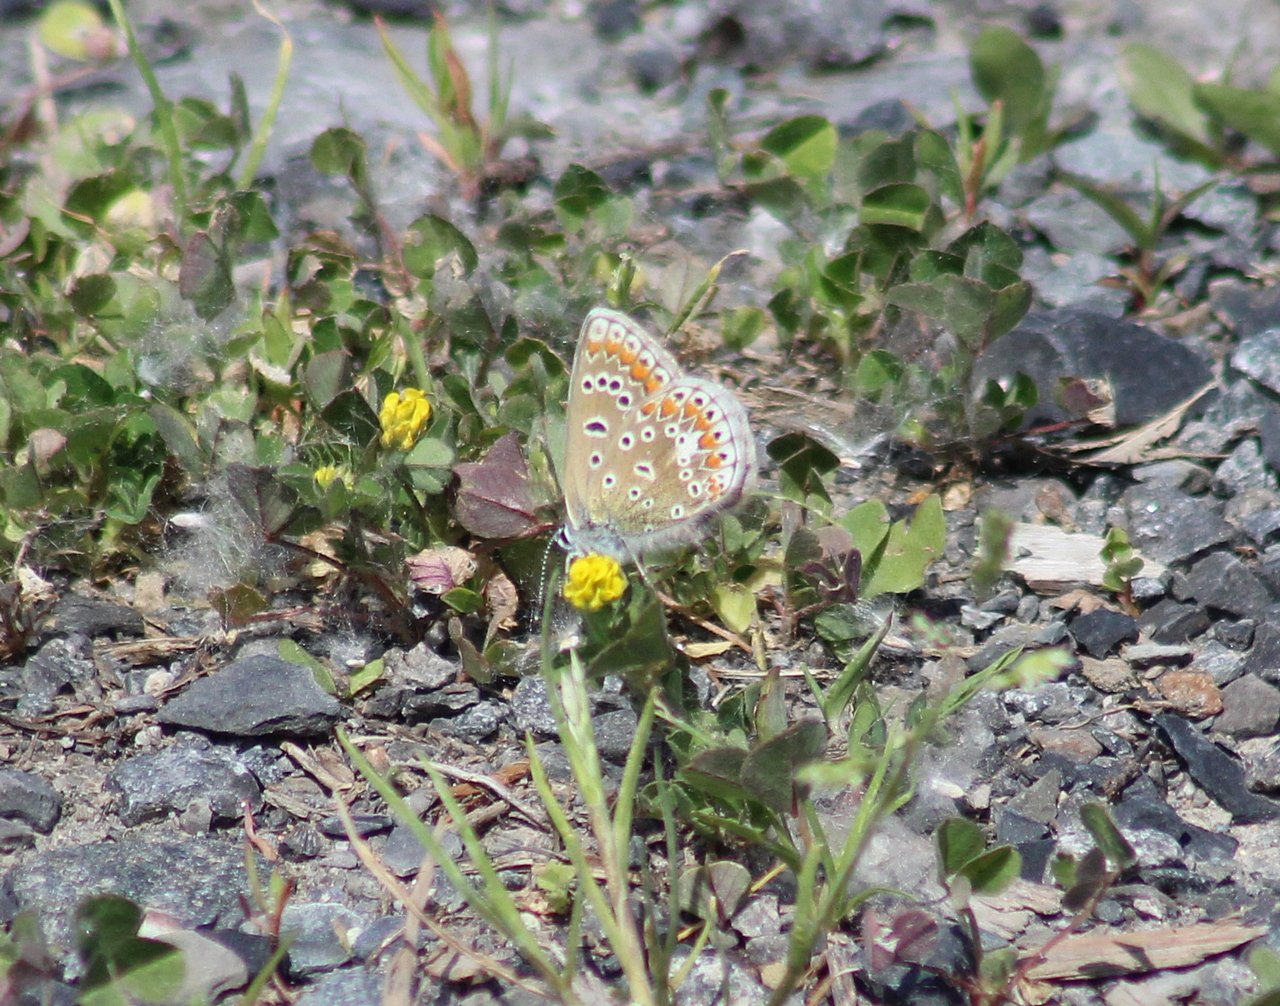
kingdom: Animalia
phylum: Arthropoda
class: Insecta
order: Lepidoptera
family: Lycaenidae
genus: Polyommatus
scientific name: Polyommatus icarus
